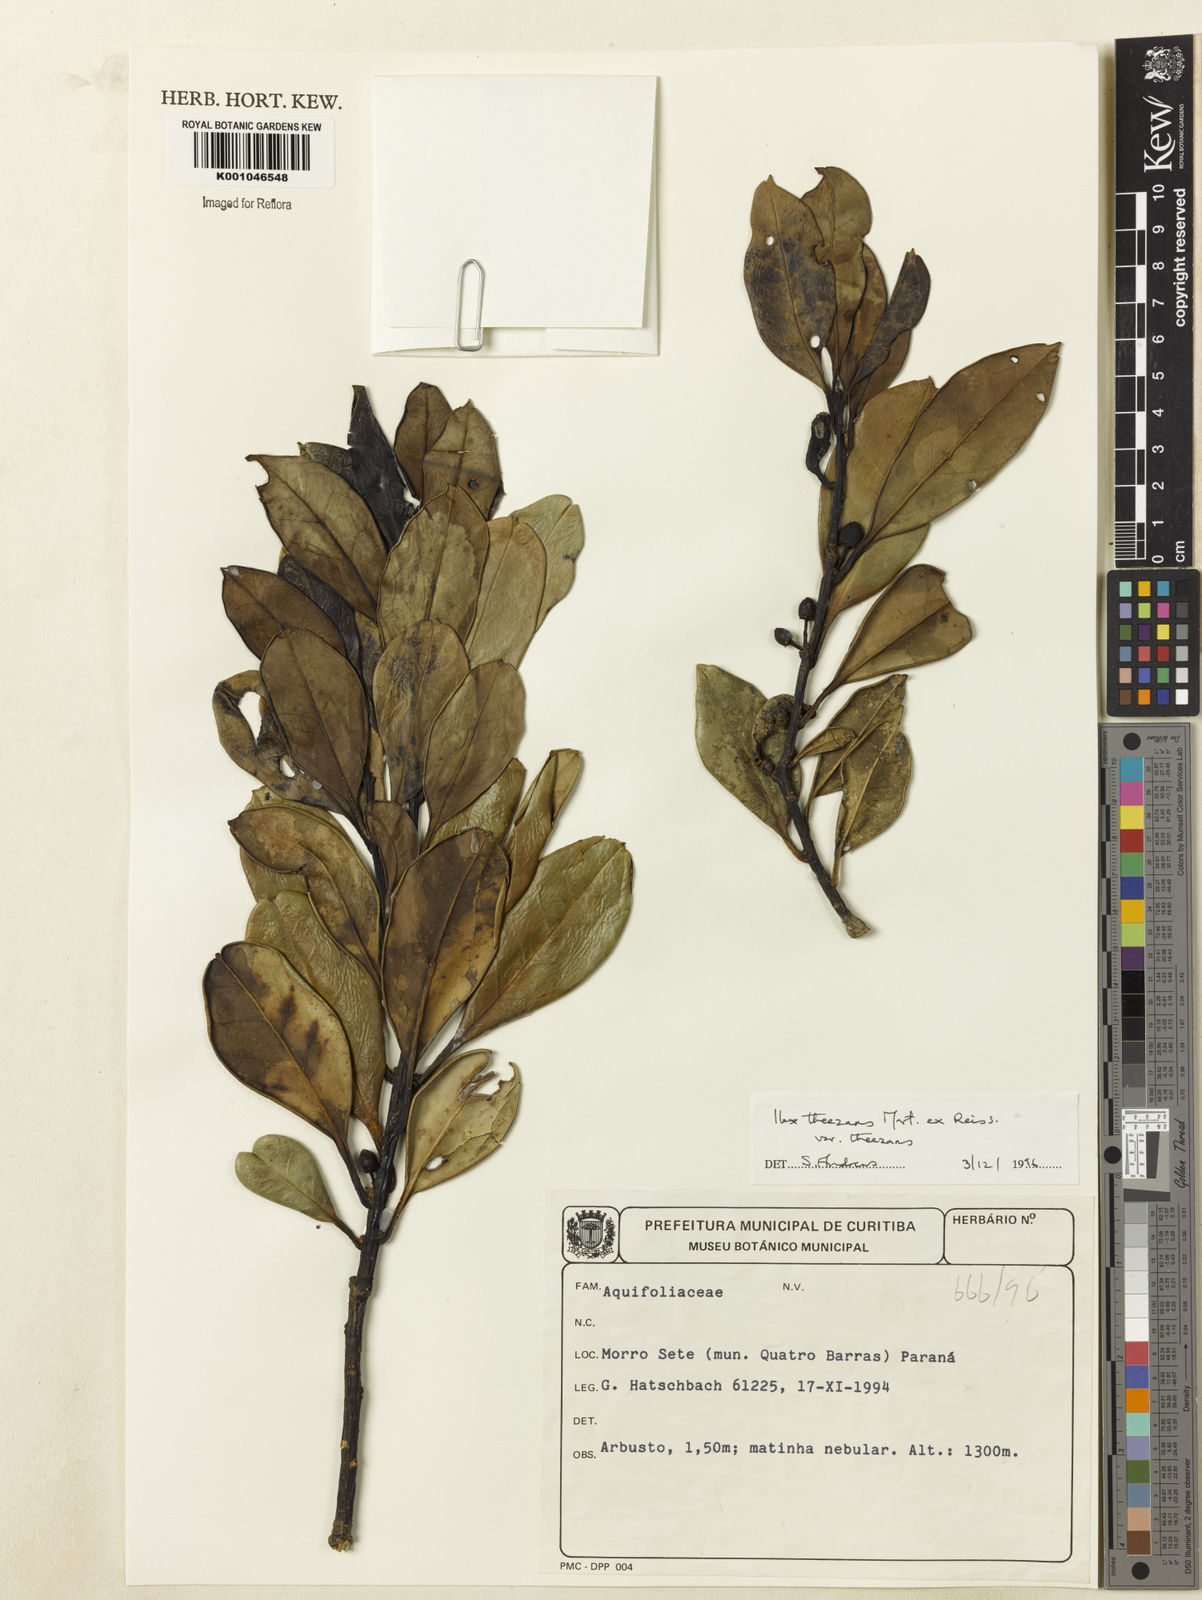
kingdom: Plantae
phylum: Tracheophyta
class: Magnoliopsida
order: Aquifoliales
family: Aquifoliaceae
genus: Ilex
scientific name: Ilex theezans
